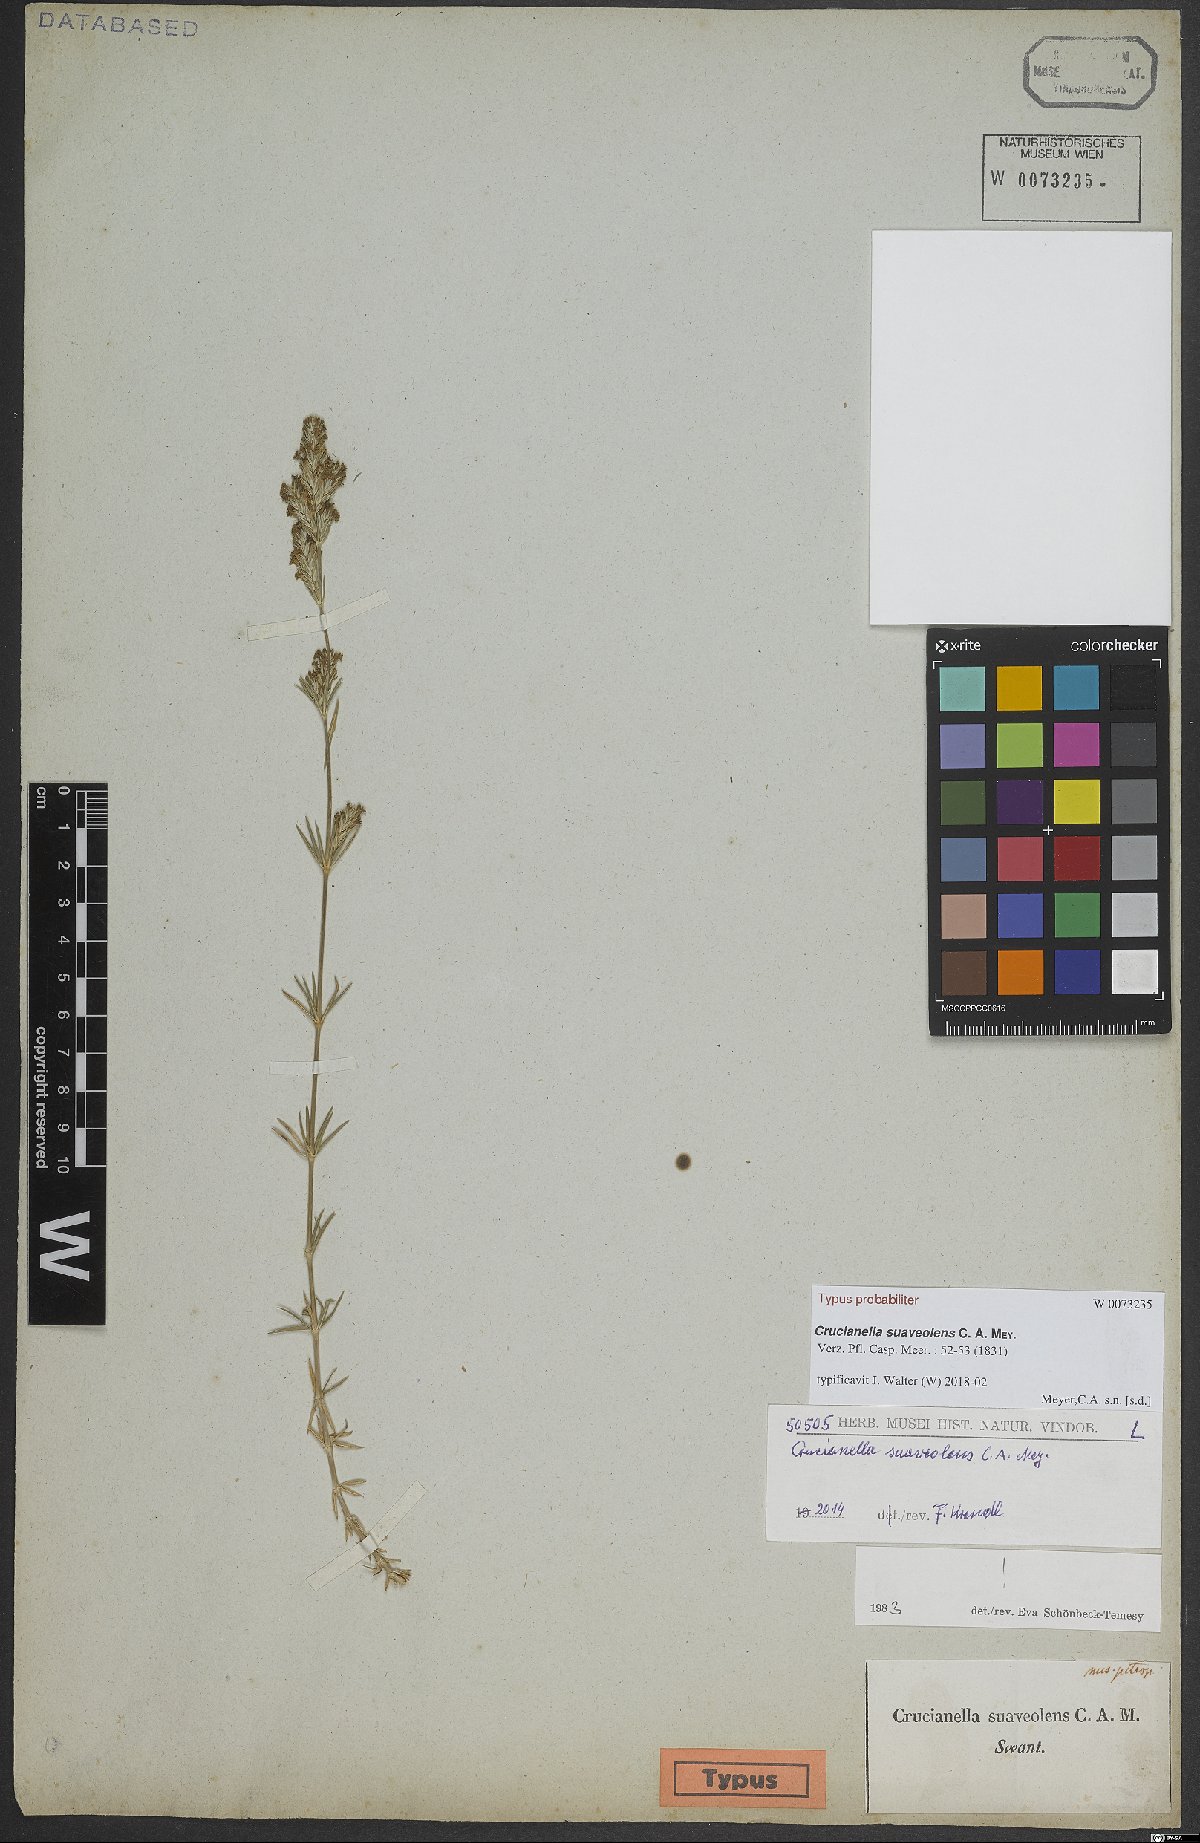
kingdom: Plantae
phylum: Tracheophyta
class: Magnoliopsida
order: Gentianales
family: Rubiaceae
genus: Crucianella
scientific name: Crucianella suaveolens
